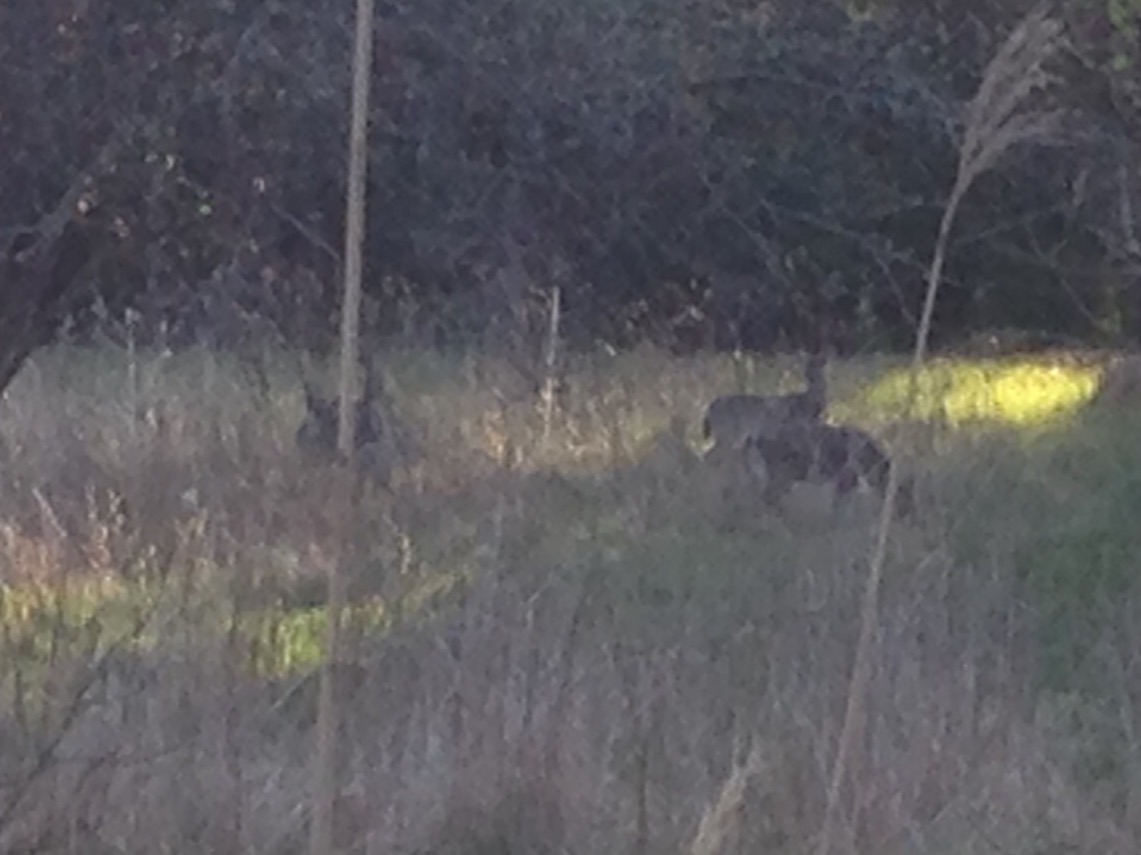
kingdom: Animalia
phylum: Chordata
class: Mammalia
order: Artiodactyla
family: Cervidae
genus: Odocoileus
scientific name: Odocoileus virginianus
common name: White-tailed deer
